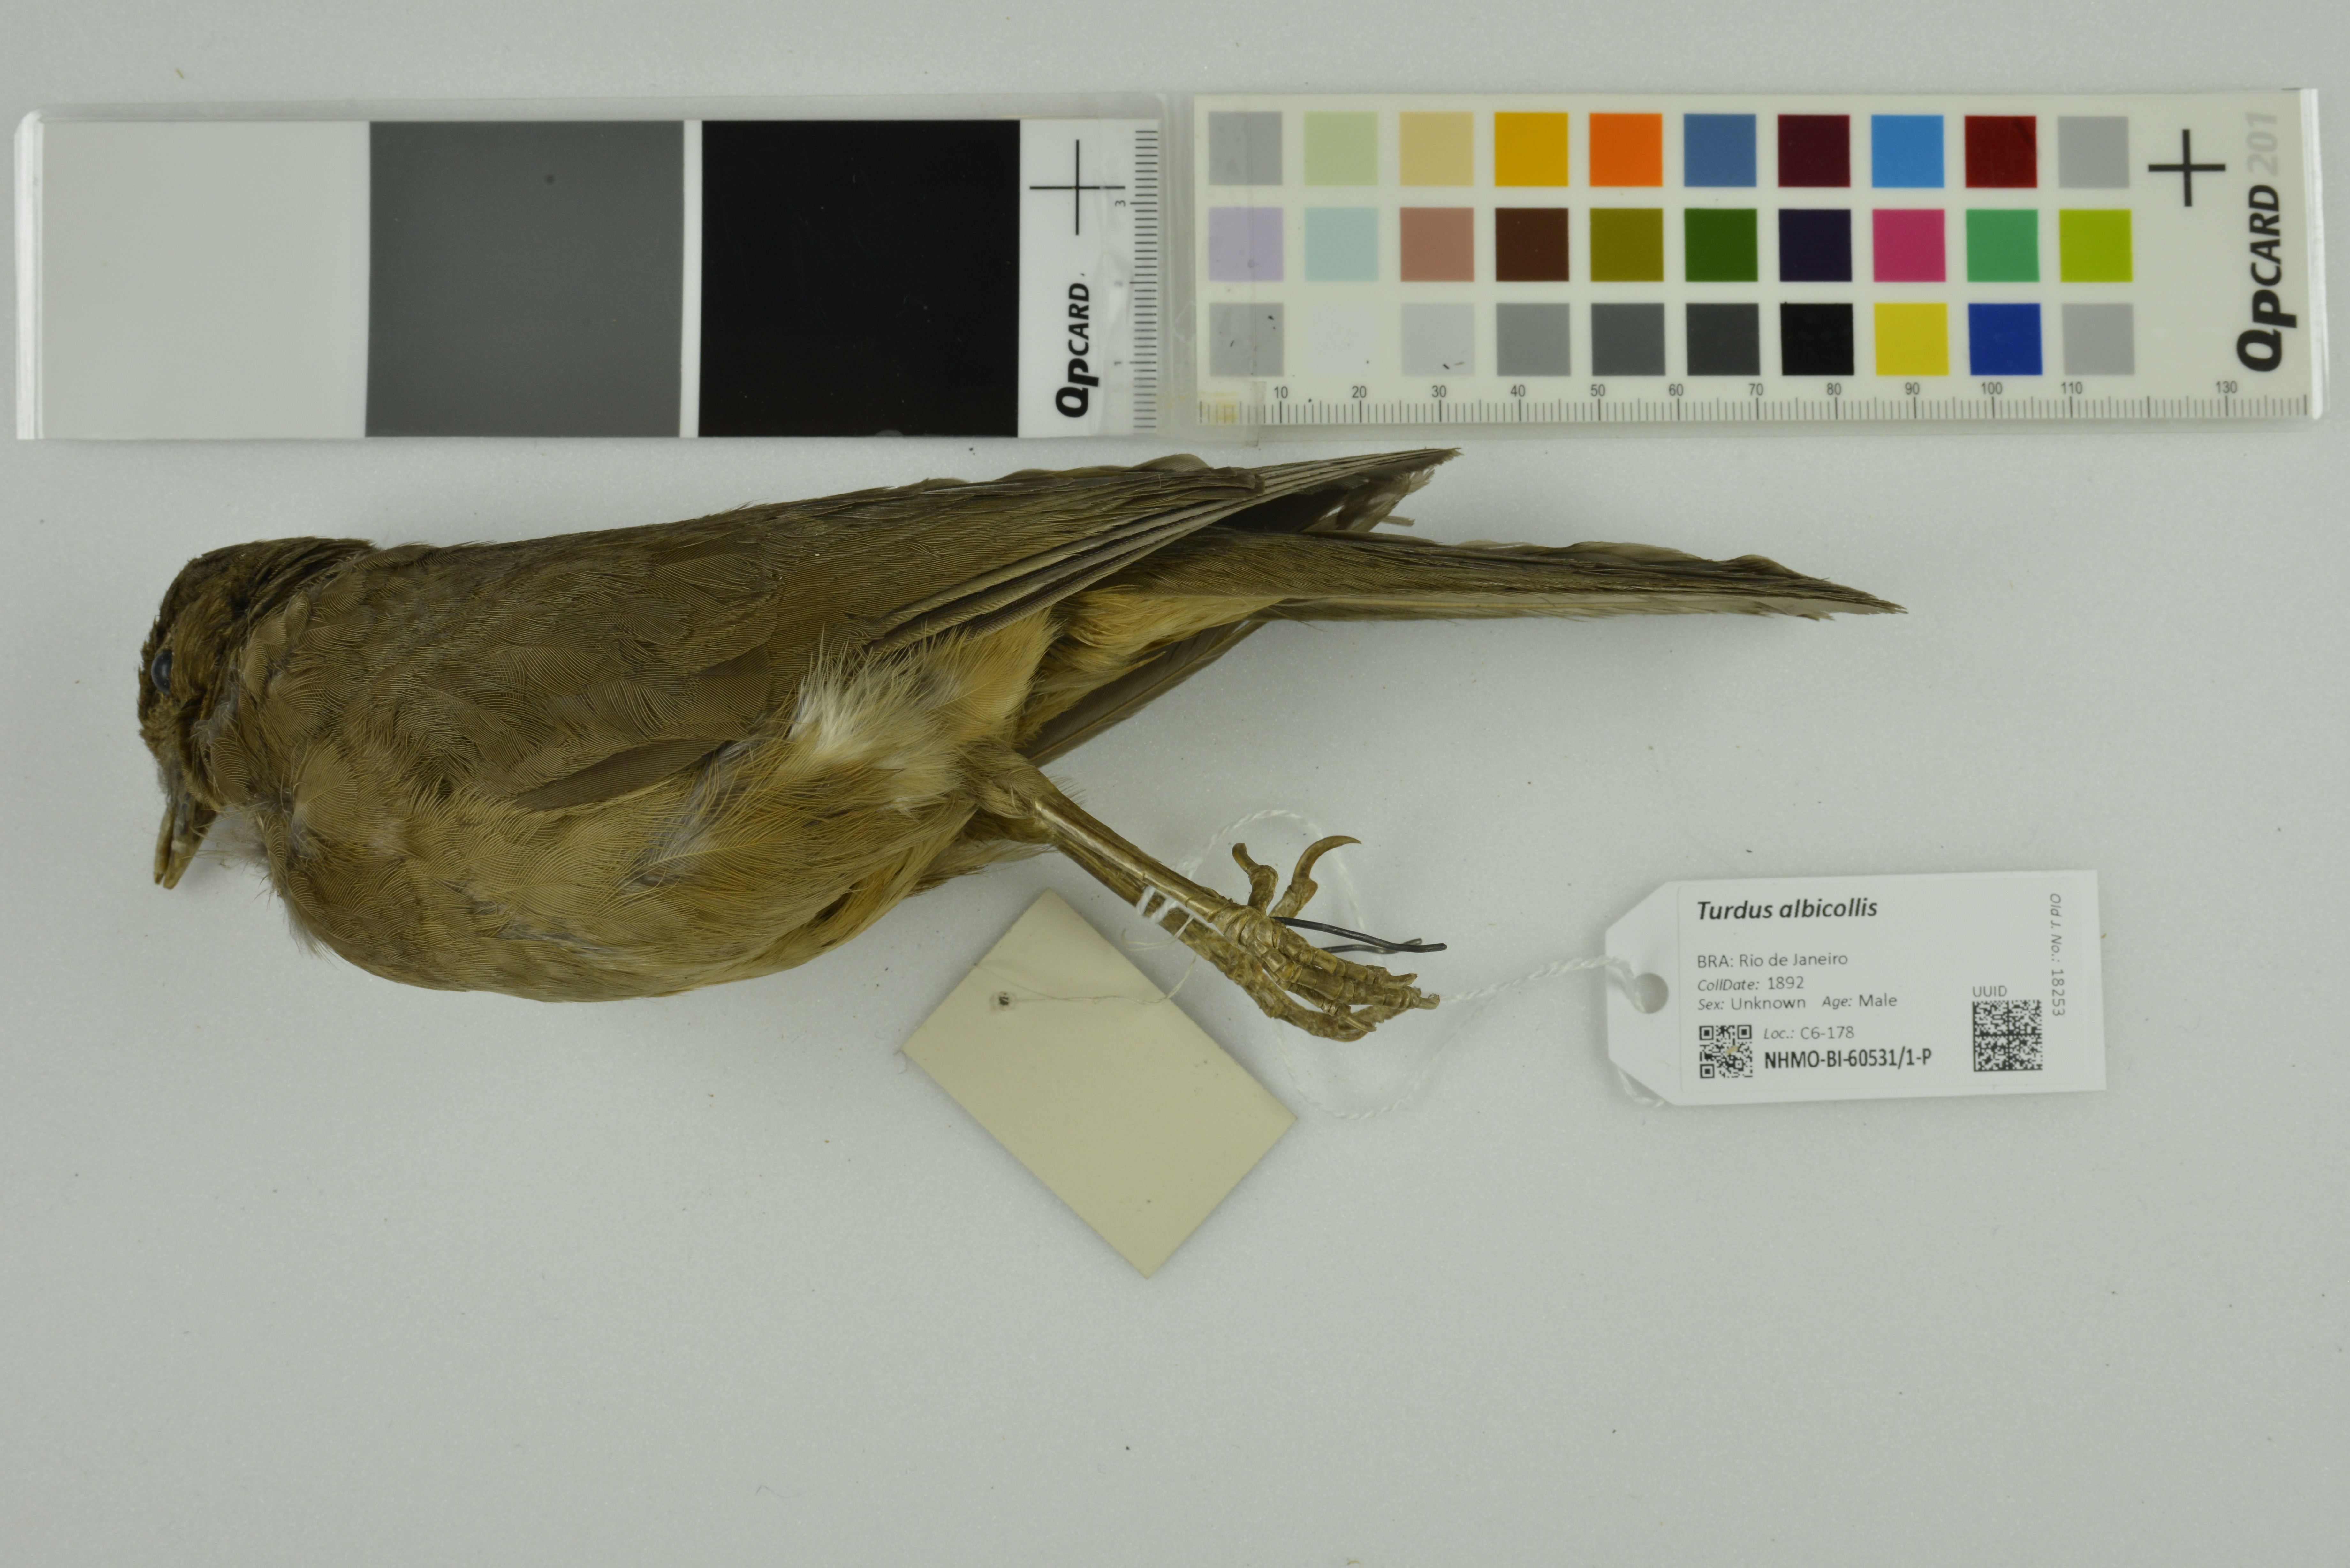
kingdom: Animalia
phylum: Chordata
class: Aves
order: Passeriformes
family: Turdidae
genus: Turdus
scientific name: Turdus albicollis
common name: White-necked thrush
